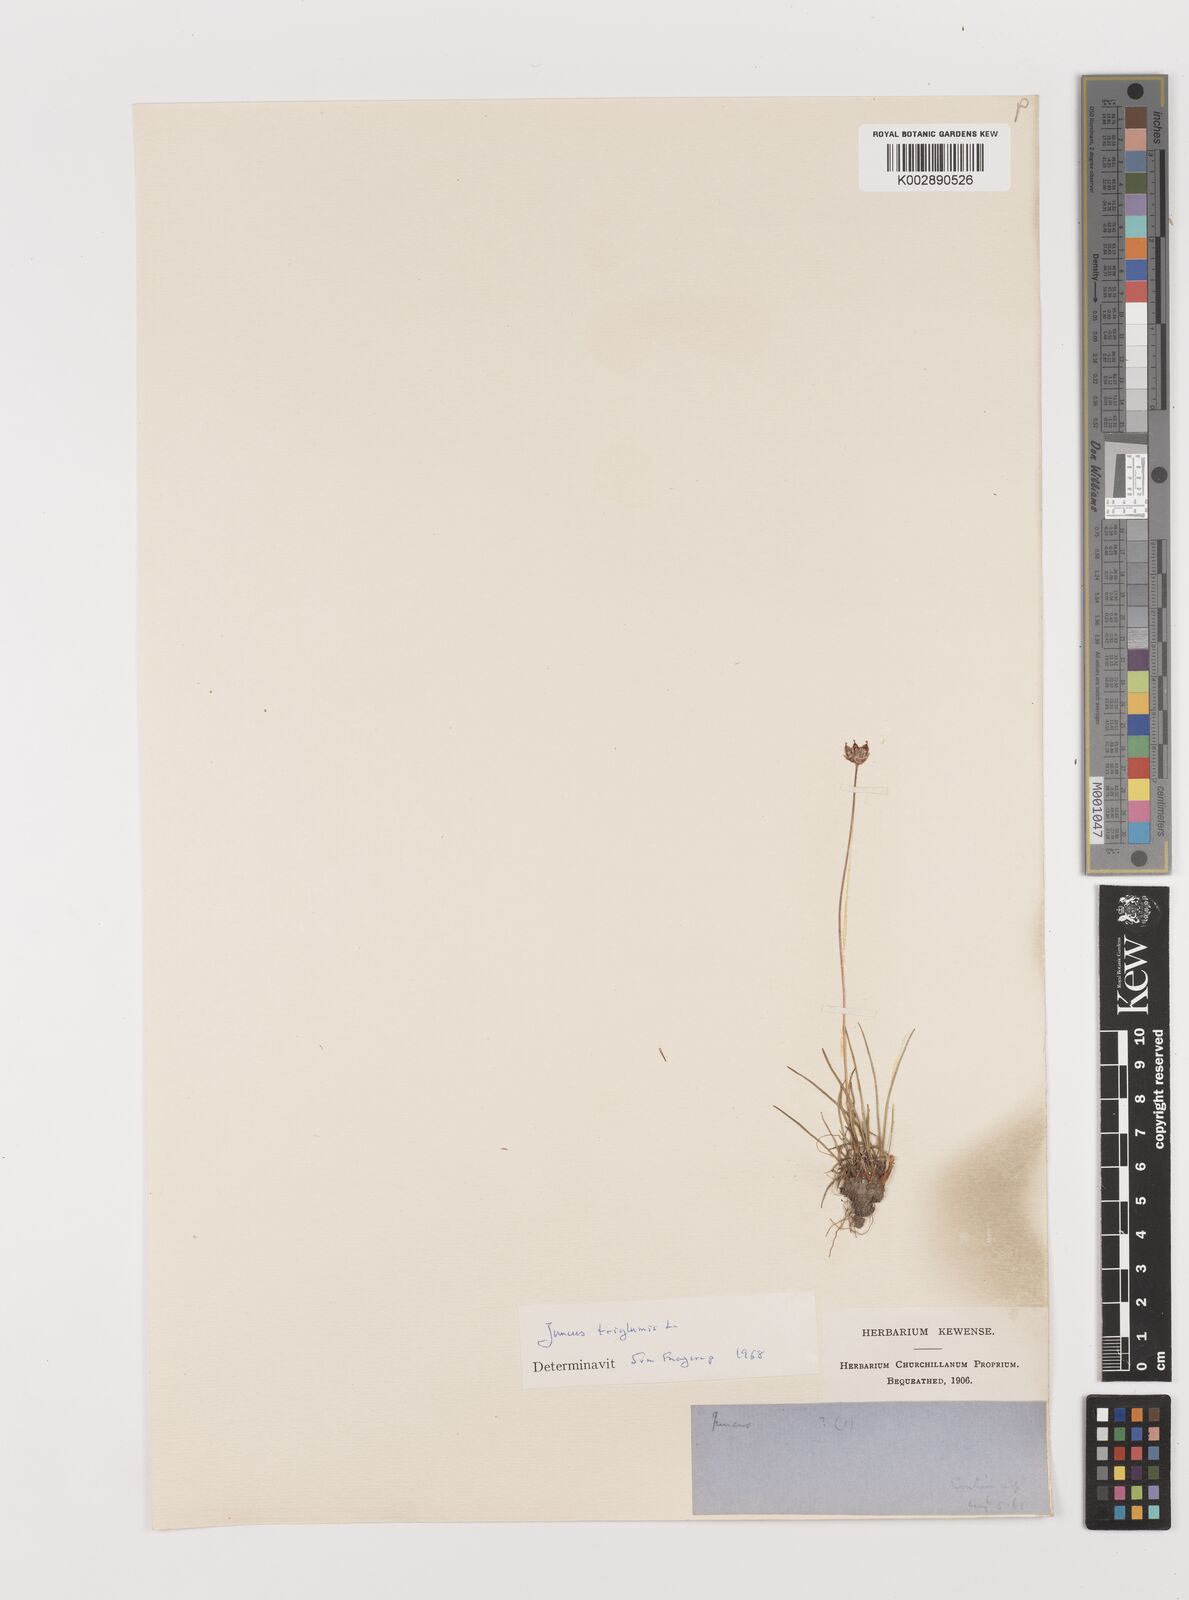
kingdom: Plantae
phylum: Tracheophyta
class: Liliopsida
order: Poales
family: Juncaceae
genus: Juncus
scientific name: Juncus triglumis
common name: Three-flowered rush
